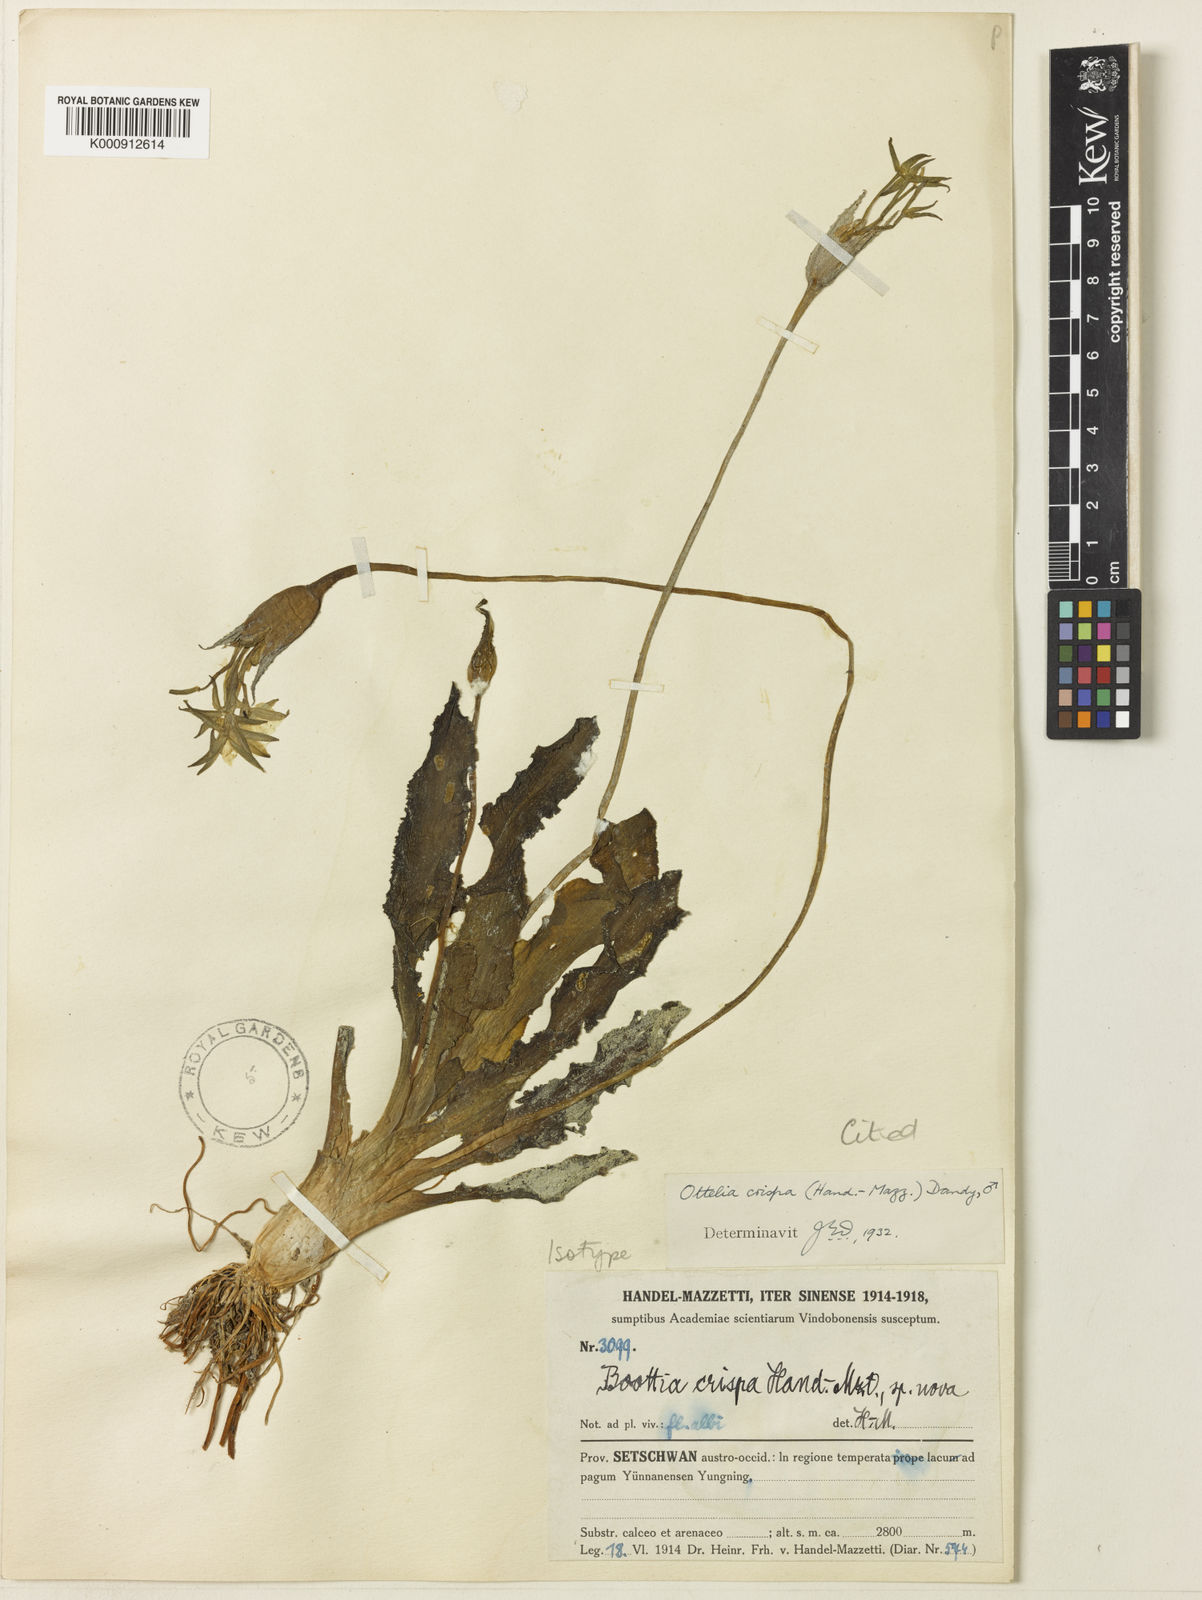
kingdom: Plantae
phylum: Tracheophyta
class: Liliopsida
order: Alismatales
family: Hydrocharitaceae
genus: Ottelia
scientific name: Ottelia acuminata
